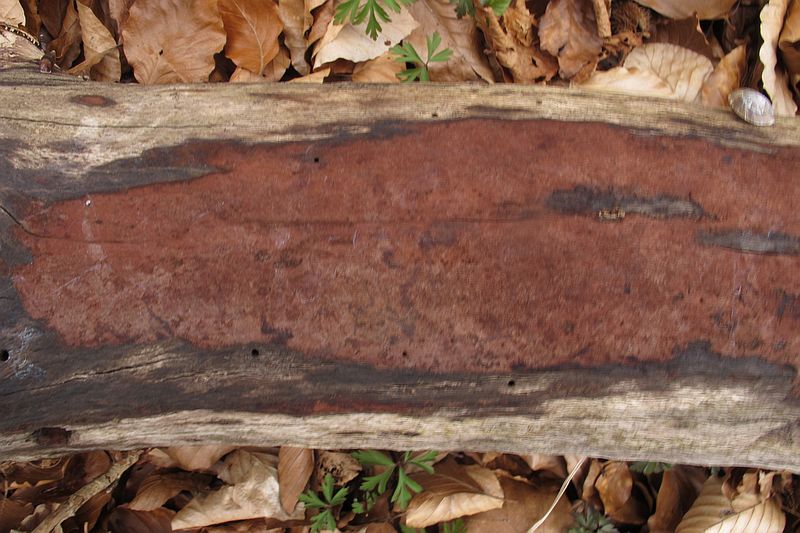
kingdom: Fungi
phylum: Ascomycota
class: Sordariomycetes
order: Xylariales
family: Hypoxylaceae
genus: Hypoxylon
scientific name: Hypoxylon macrocarpum
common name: skorpe-kulbær
